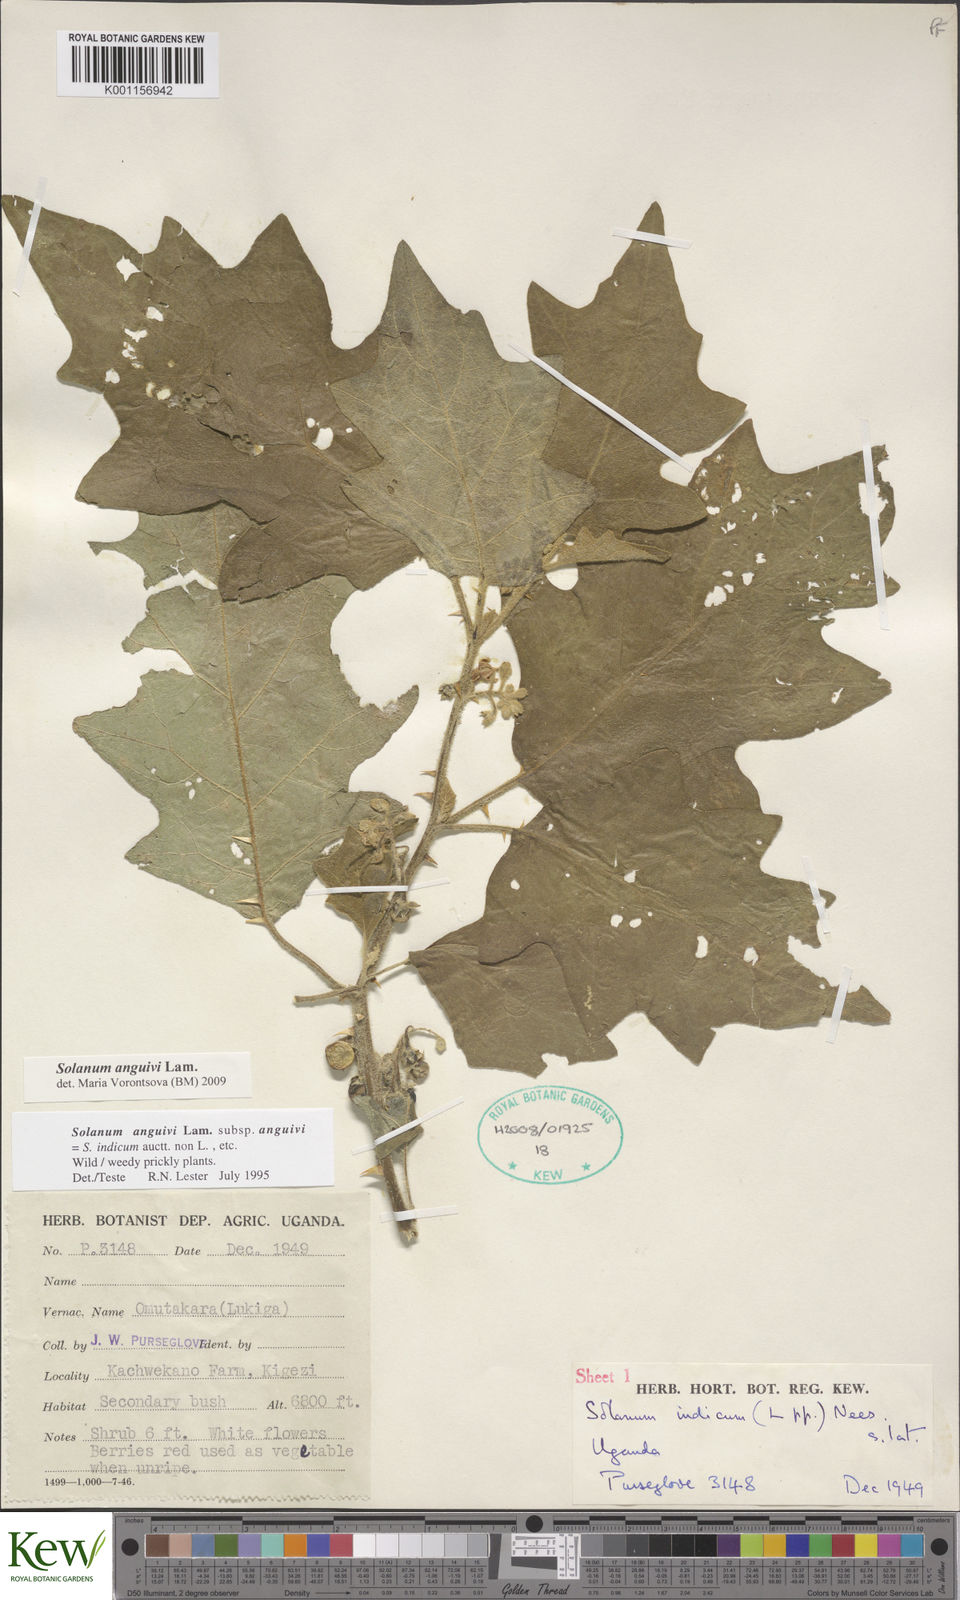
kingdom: Plantae
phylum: Tracheophyta
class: Magnoliopsida
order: Solanales
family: Solanaceae
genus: Solanum
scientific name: Solanum anguivi
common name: Forest bitterberry
